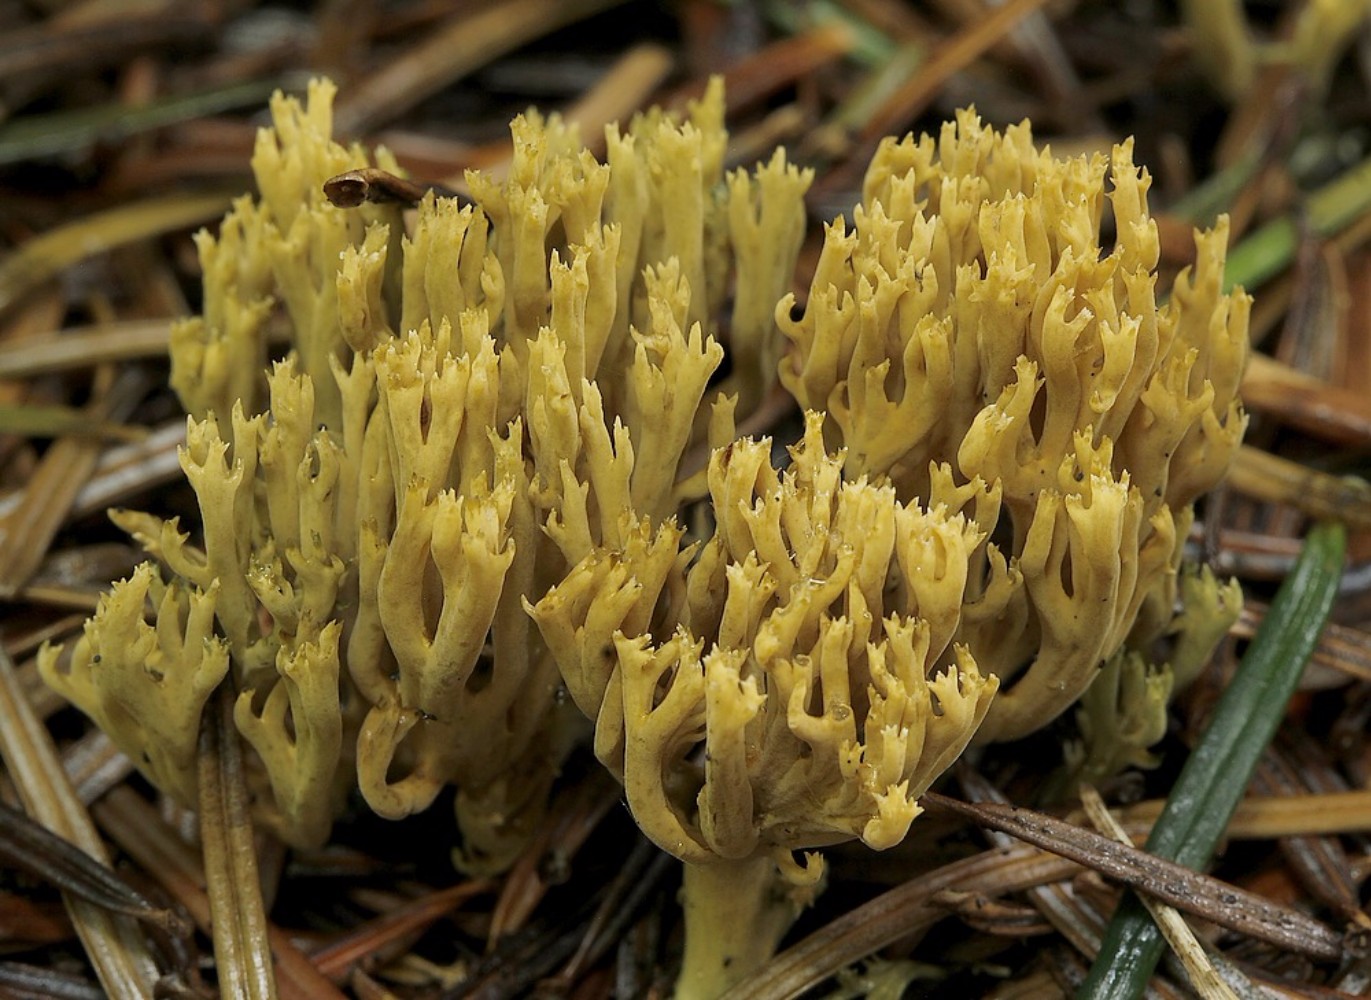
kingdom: Fungi
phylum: Basidiomycota
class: Agaricomycetes
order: Gomphales
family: Gomphaceae
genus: Phaeoclavulina
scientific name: Phaeoclavulina eumorpha
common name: gran-koralsvamp
